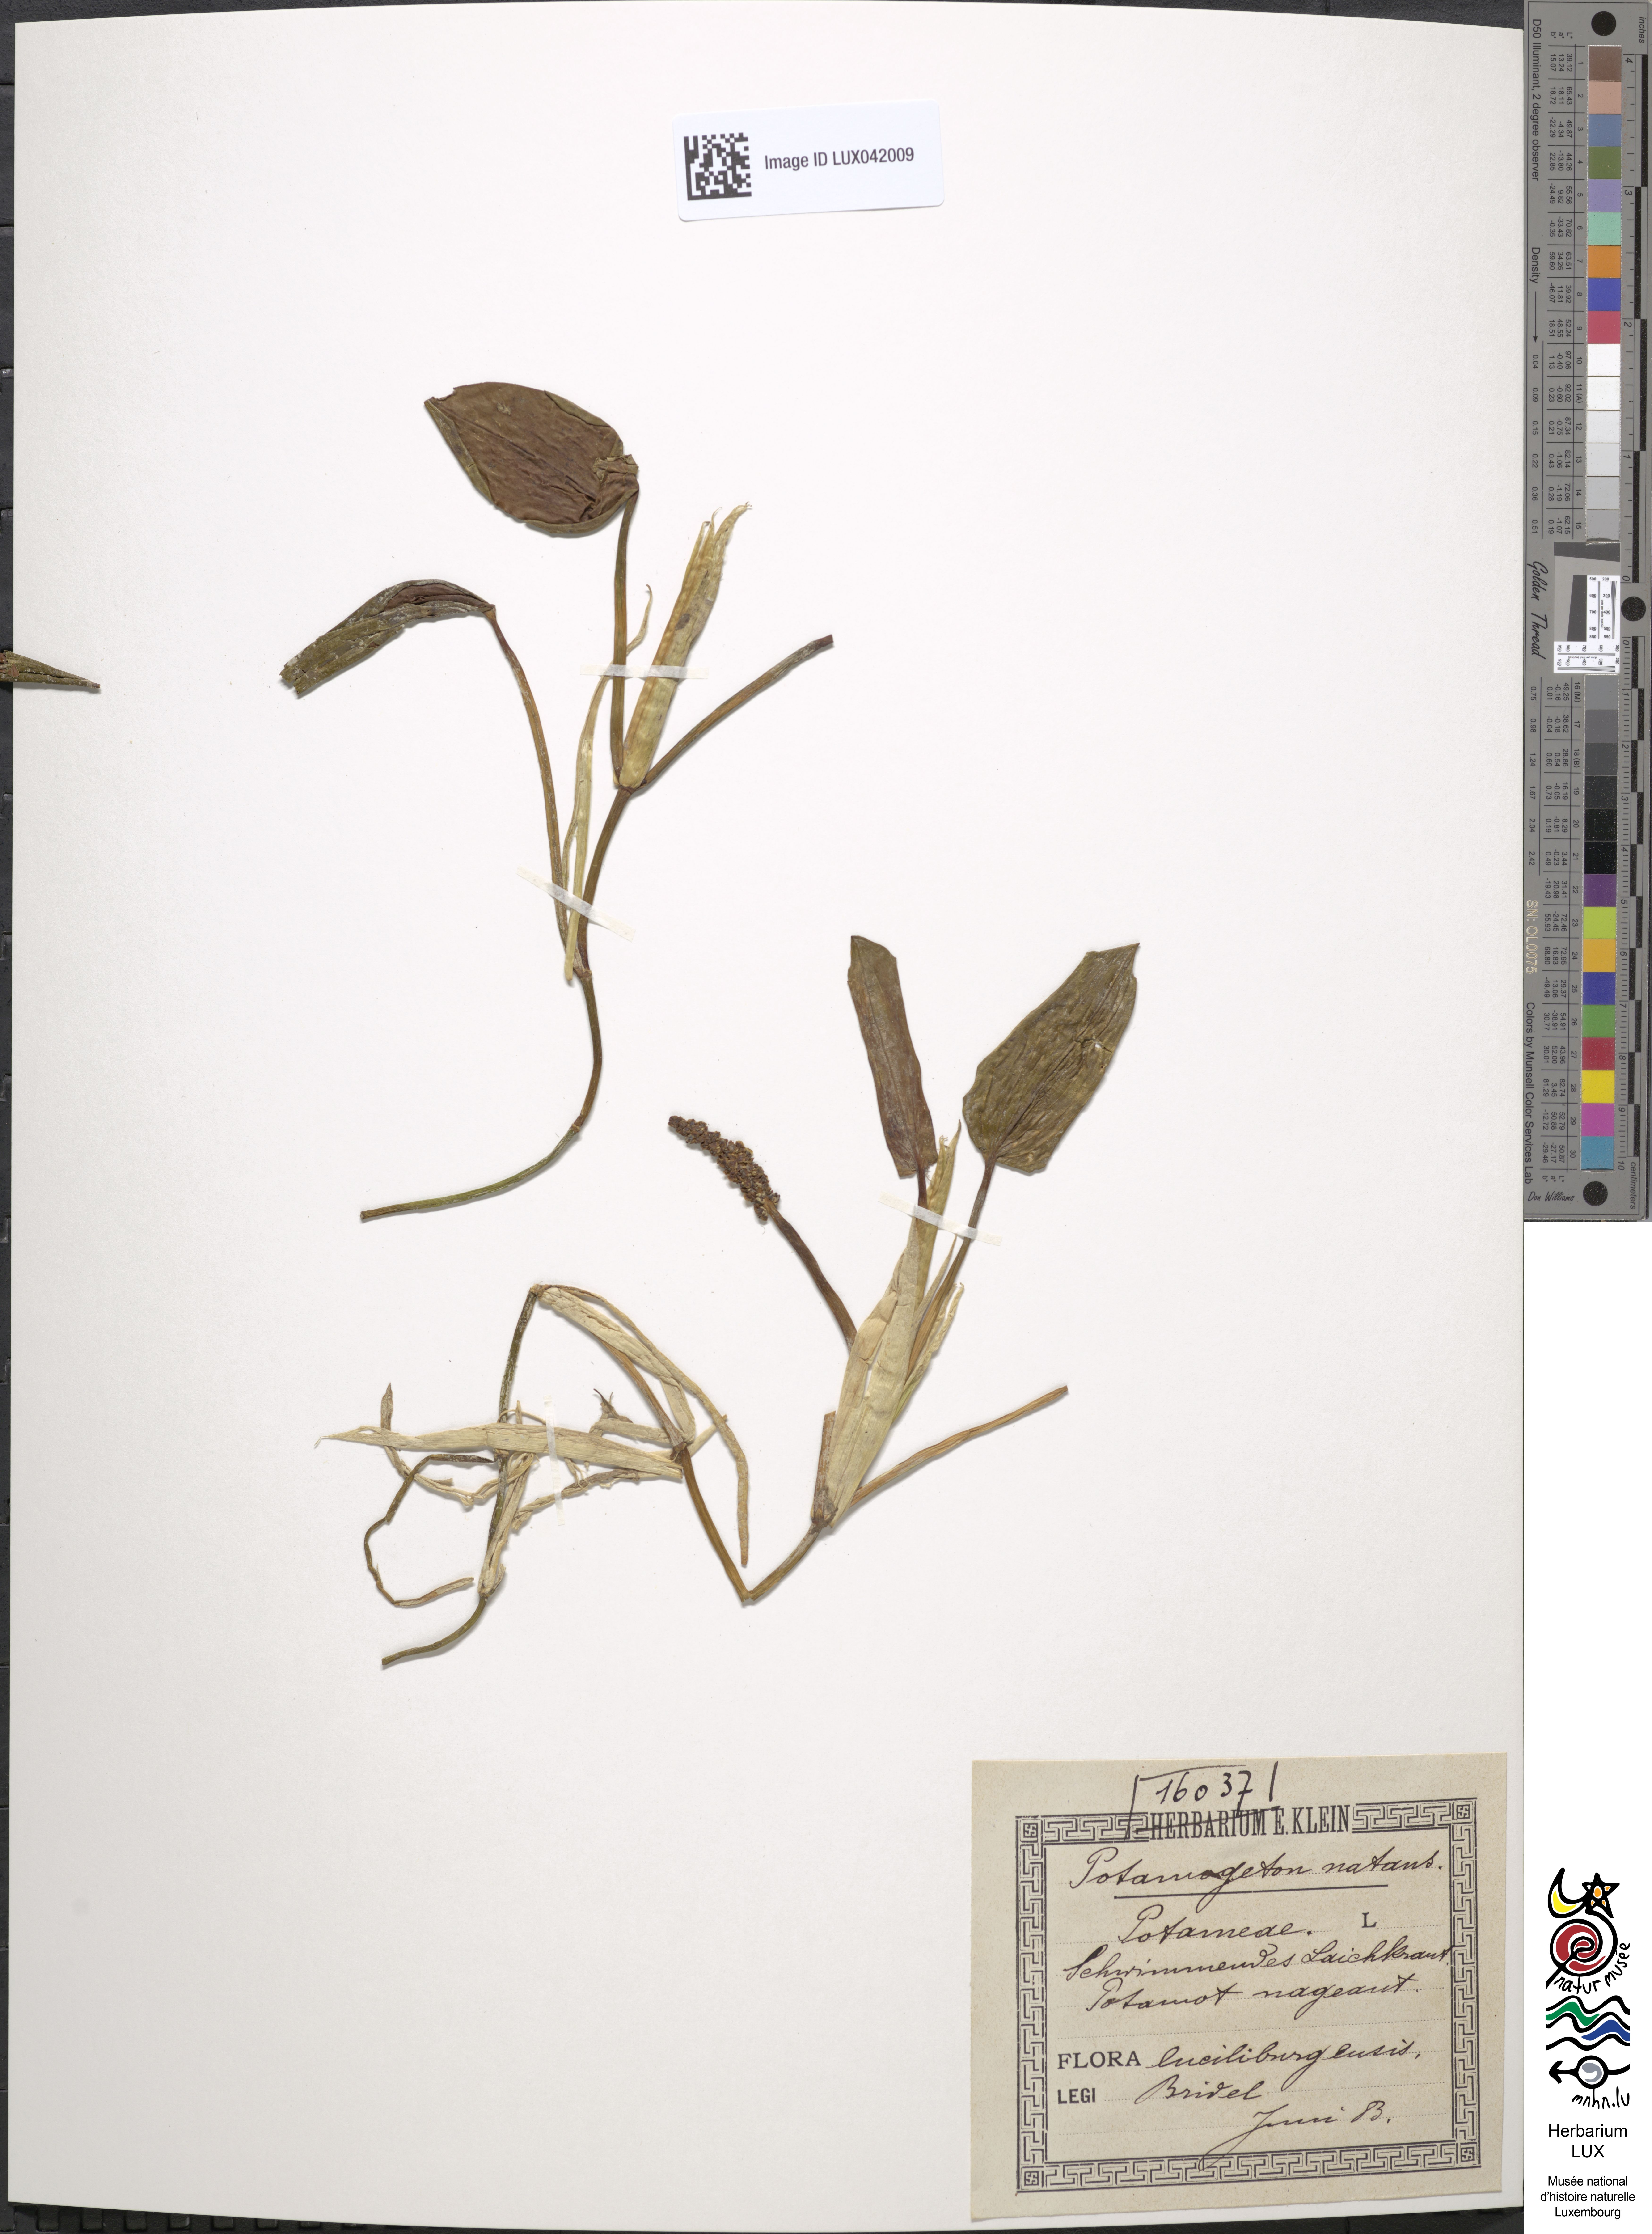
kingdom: Plantae
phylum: Tracheophyta
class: Liliopsida
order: Alismatales
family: Potamogetonaceae
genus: Potamogeton
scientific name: Potamogeton natans
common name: Broad-leaved pondweed
